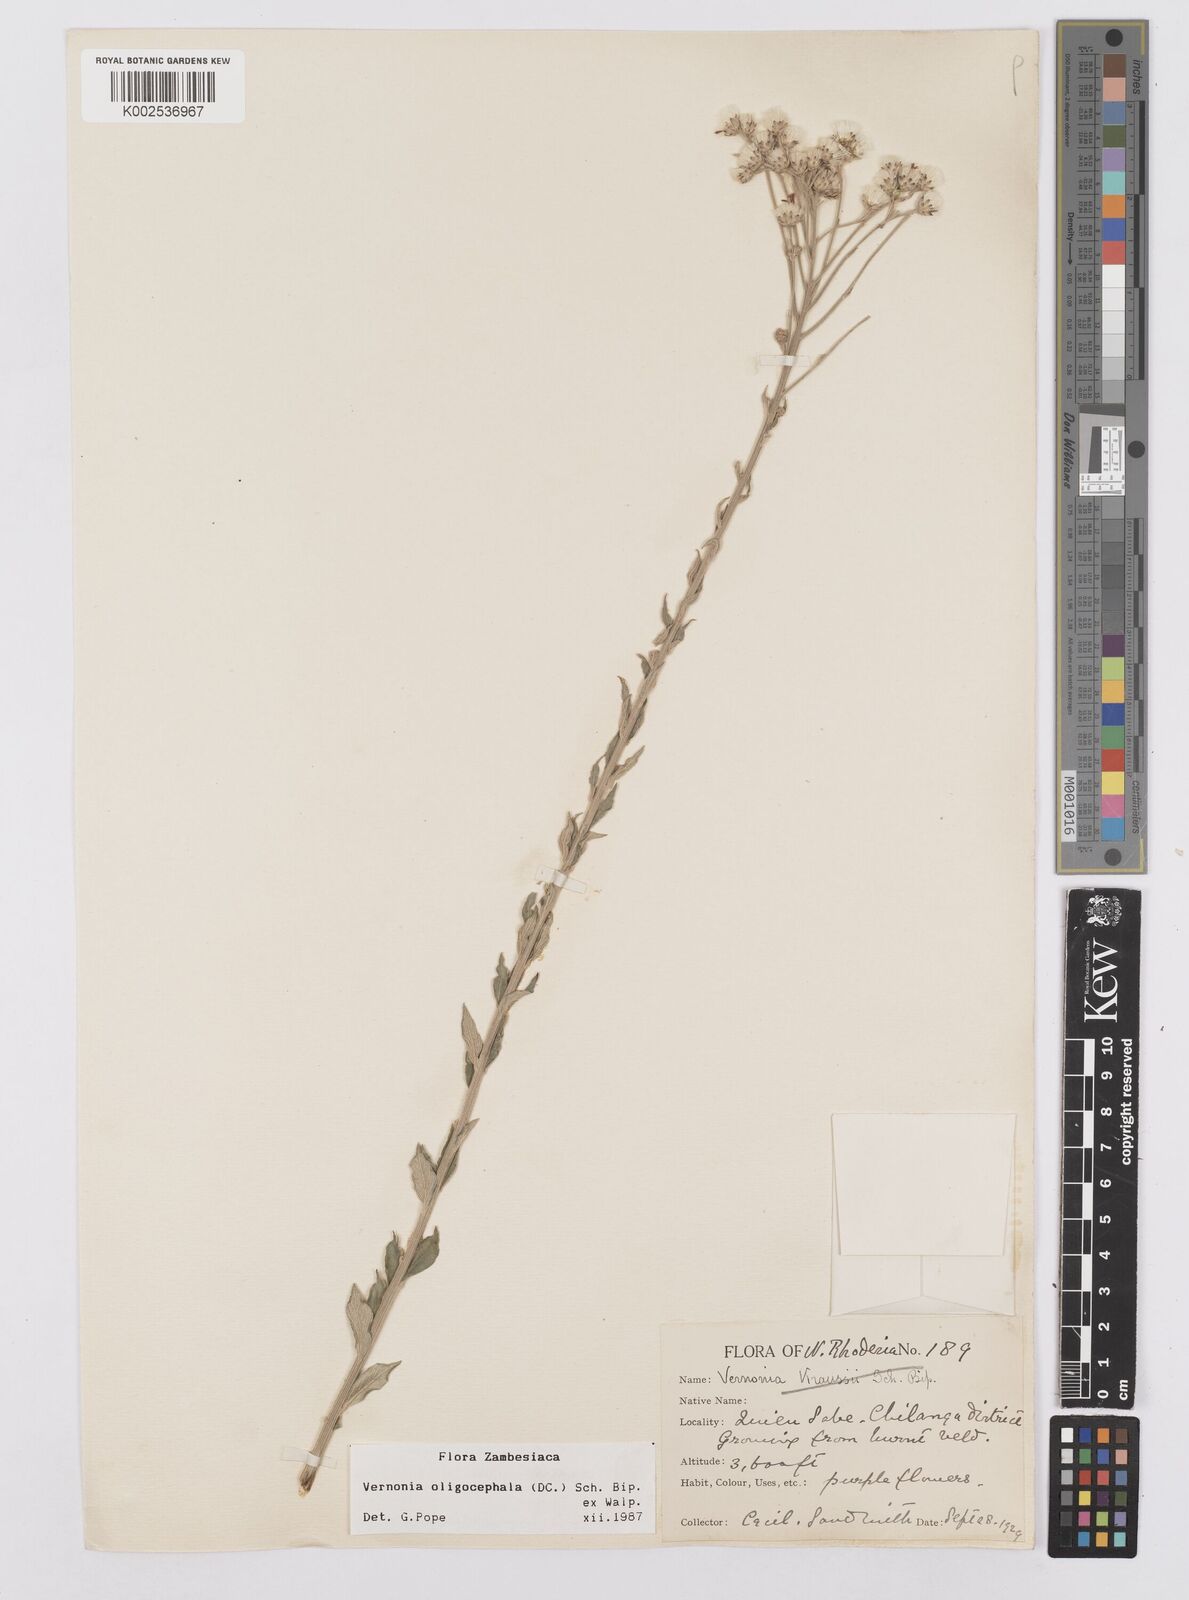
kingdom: Plantae
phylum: Tracheophyta
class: Magnoliopsida
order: Asterales
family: Asteraceae
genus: Hilliardiella
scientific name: Hilliardiella oligocephala
